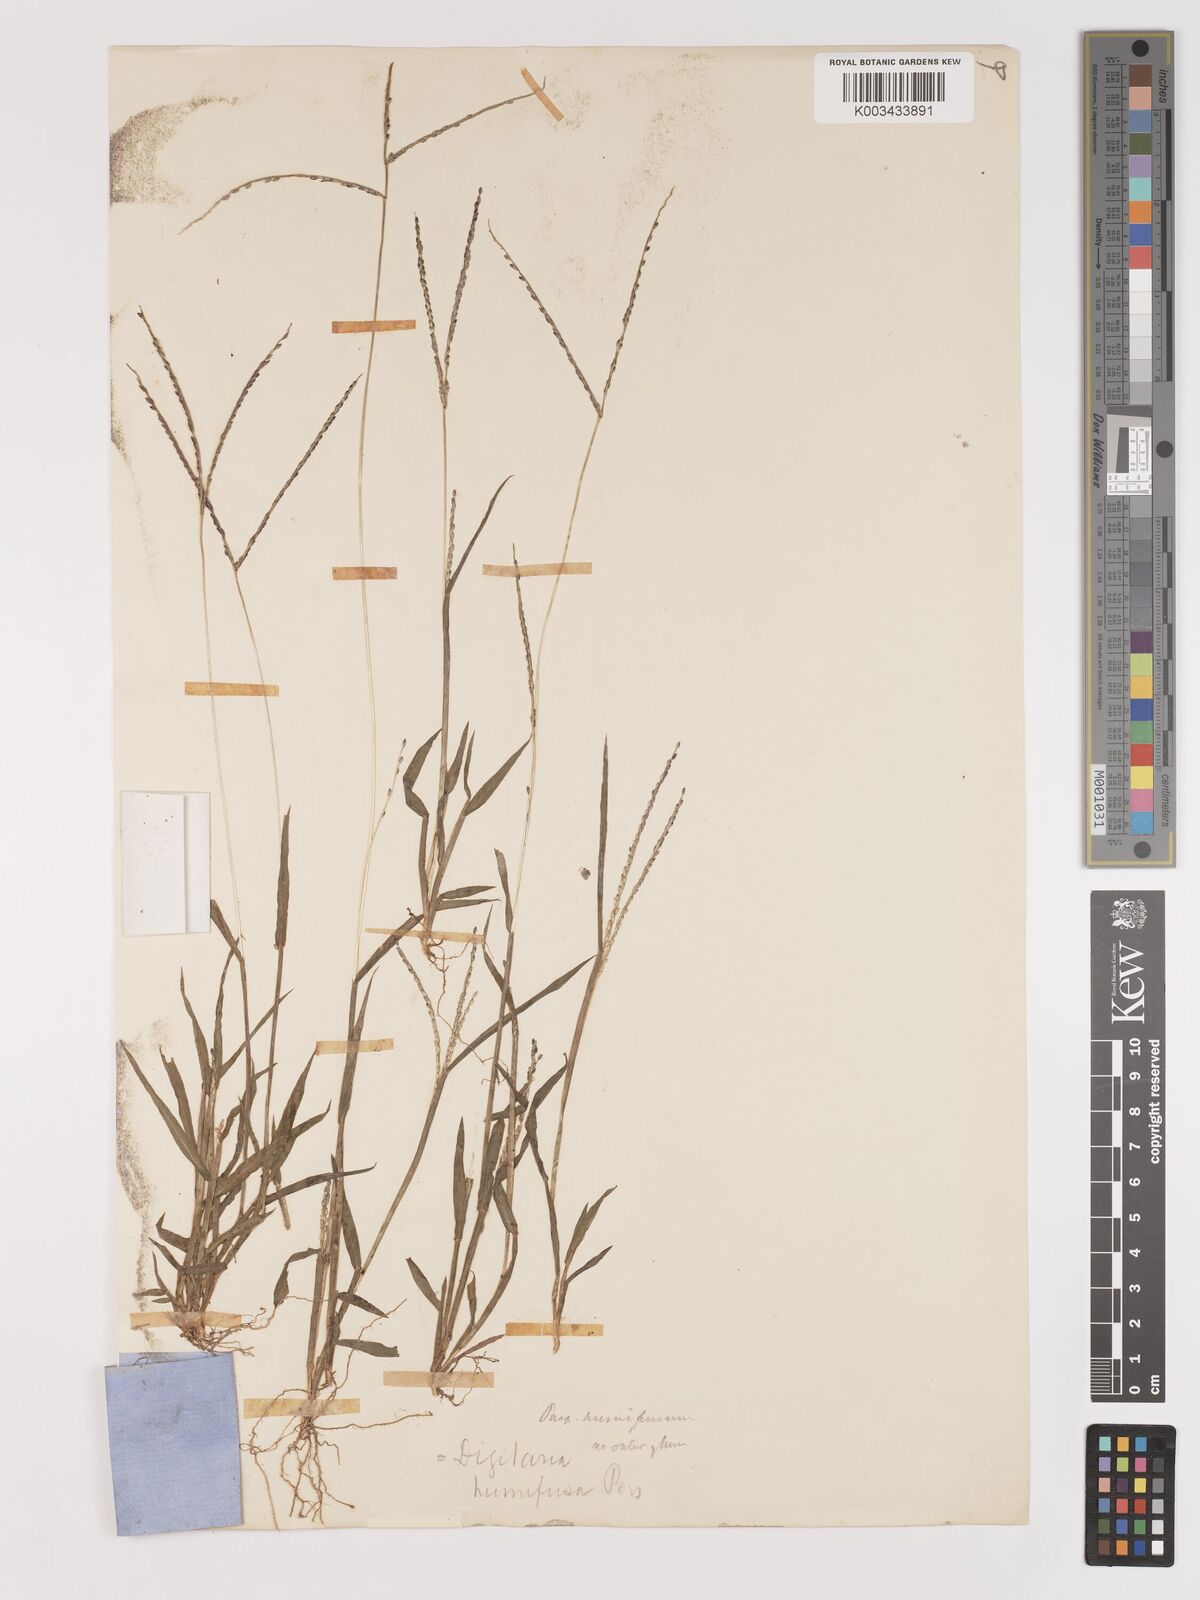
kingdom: Plantae
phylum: Tracheophyta
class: Liliopsida
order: Poales
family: Poaceae
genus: Digitaria
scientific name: Digitaria ischaemum
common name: Smooth crabgrass
